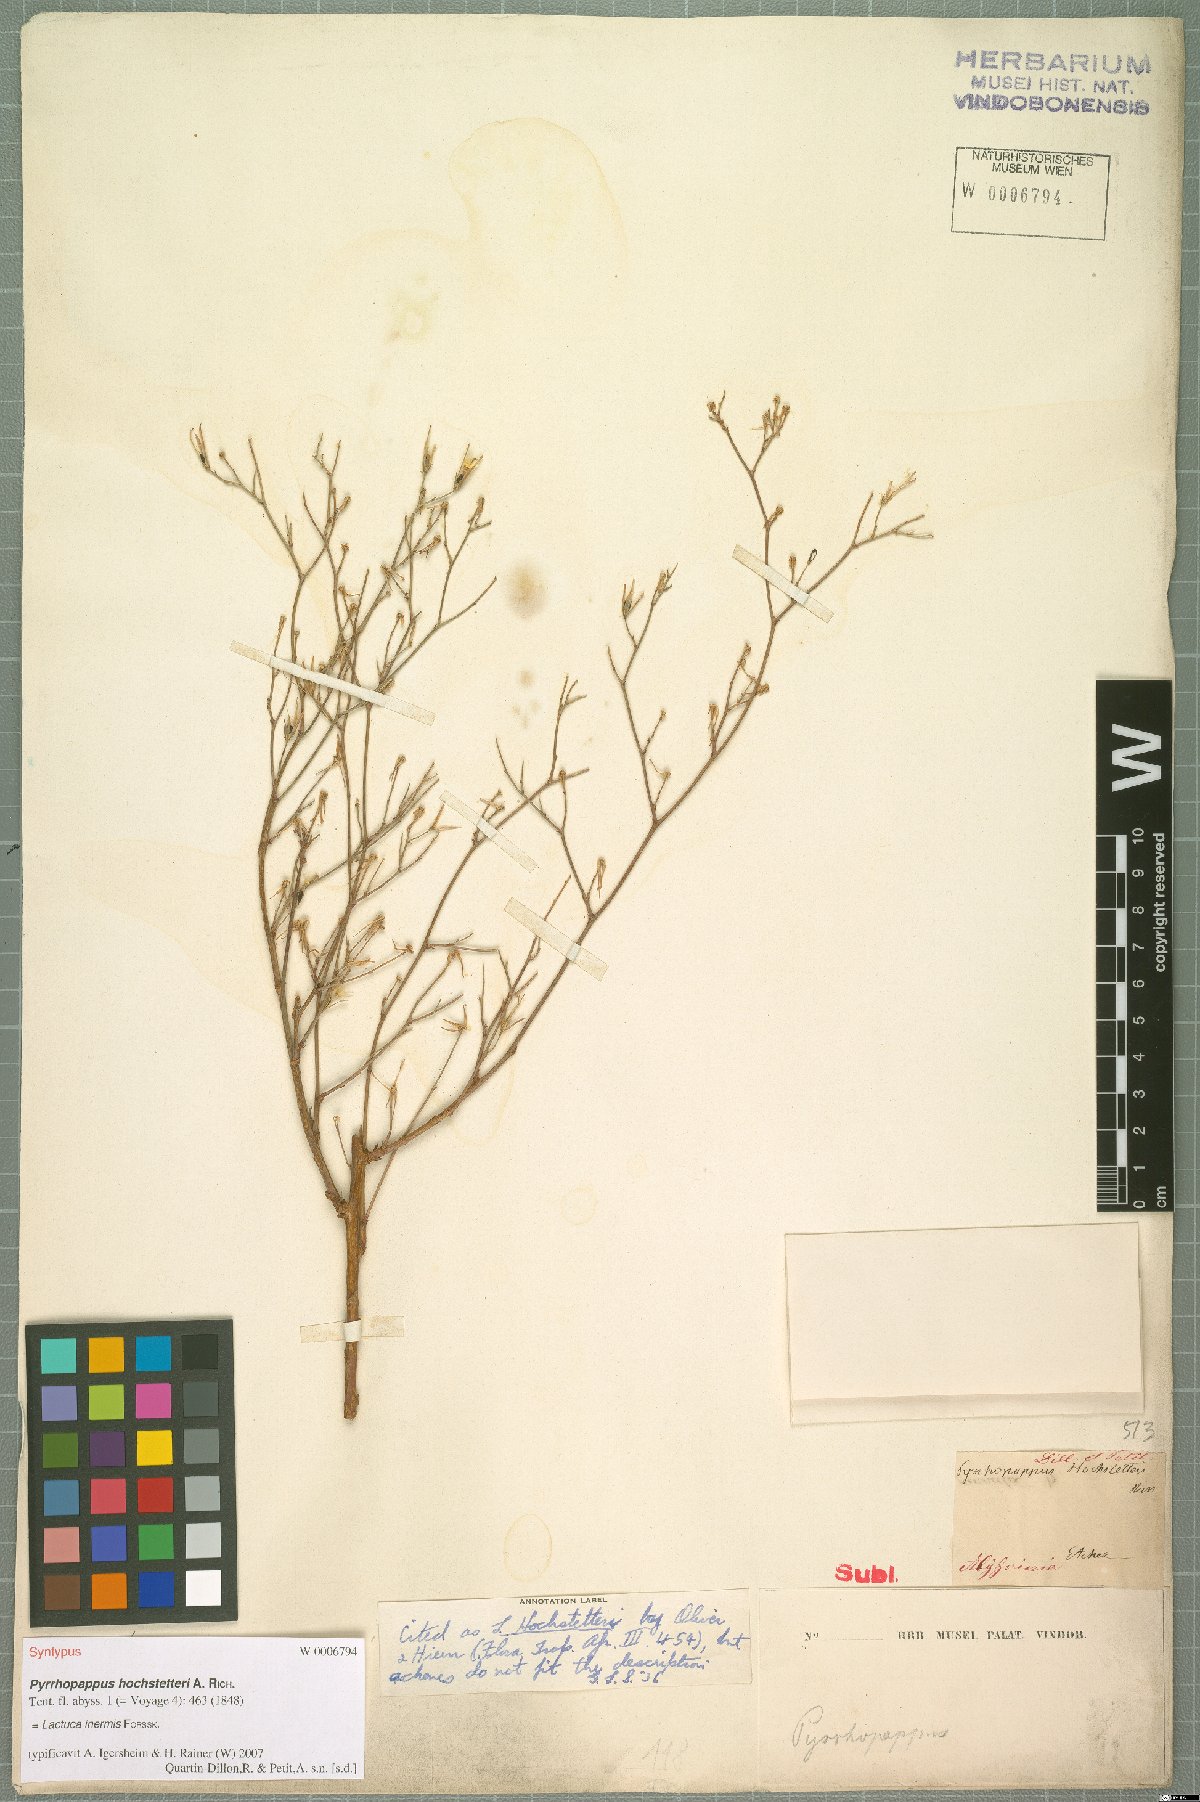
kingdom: Plantae
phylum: Tracheophyta
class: Magnoliopsida
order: Asterales
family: Asteraceae
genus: Lactuca
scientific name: Lactuca inermis
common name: Wild lettuce
